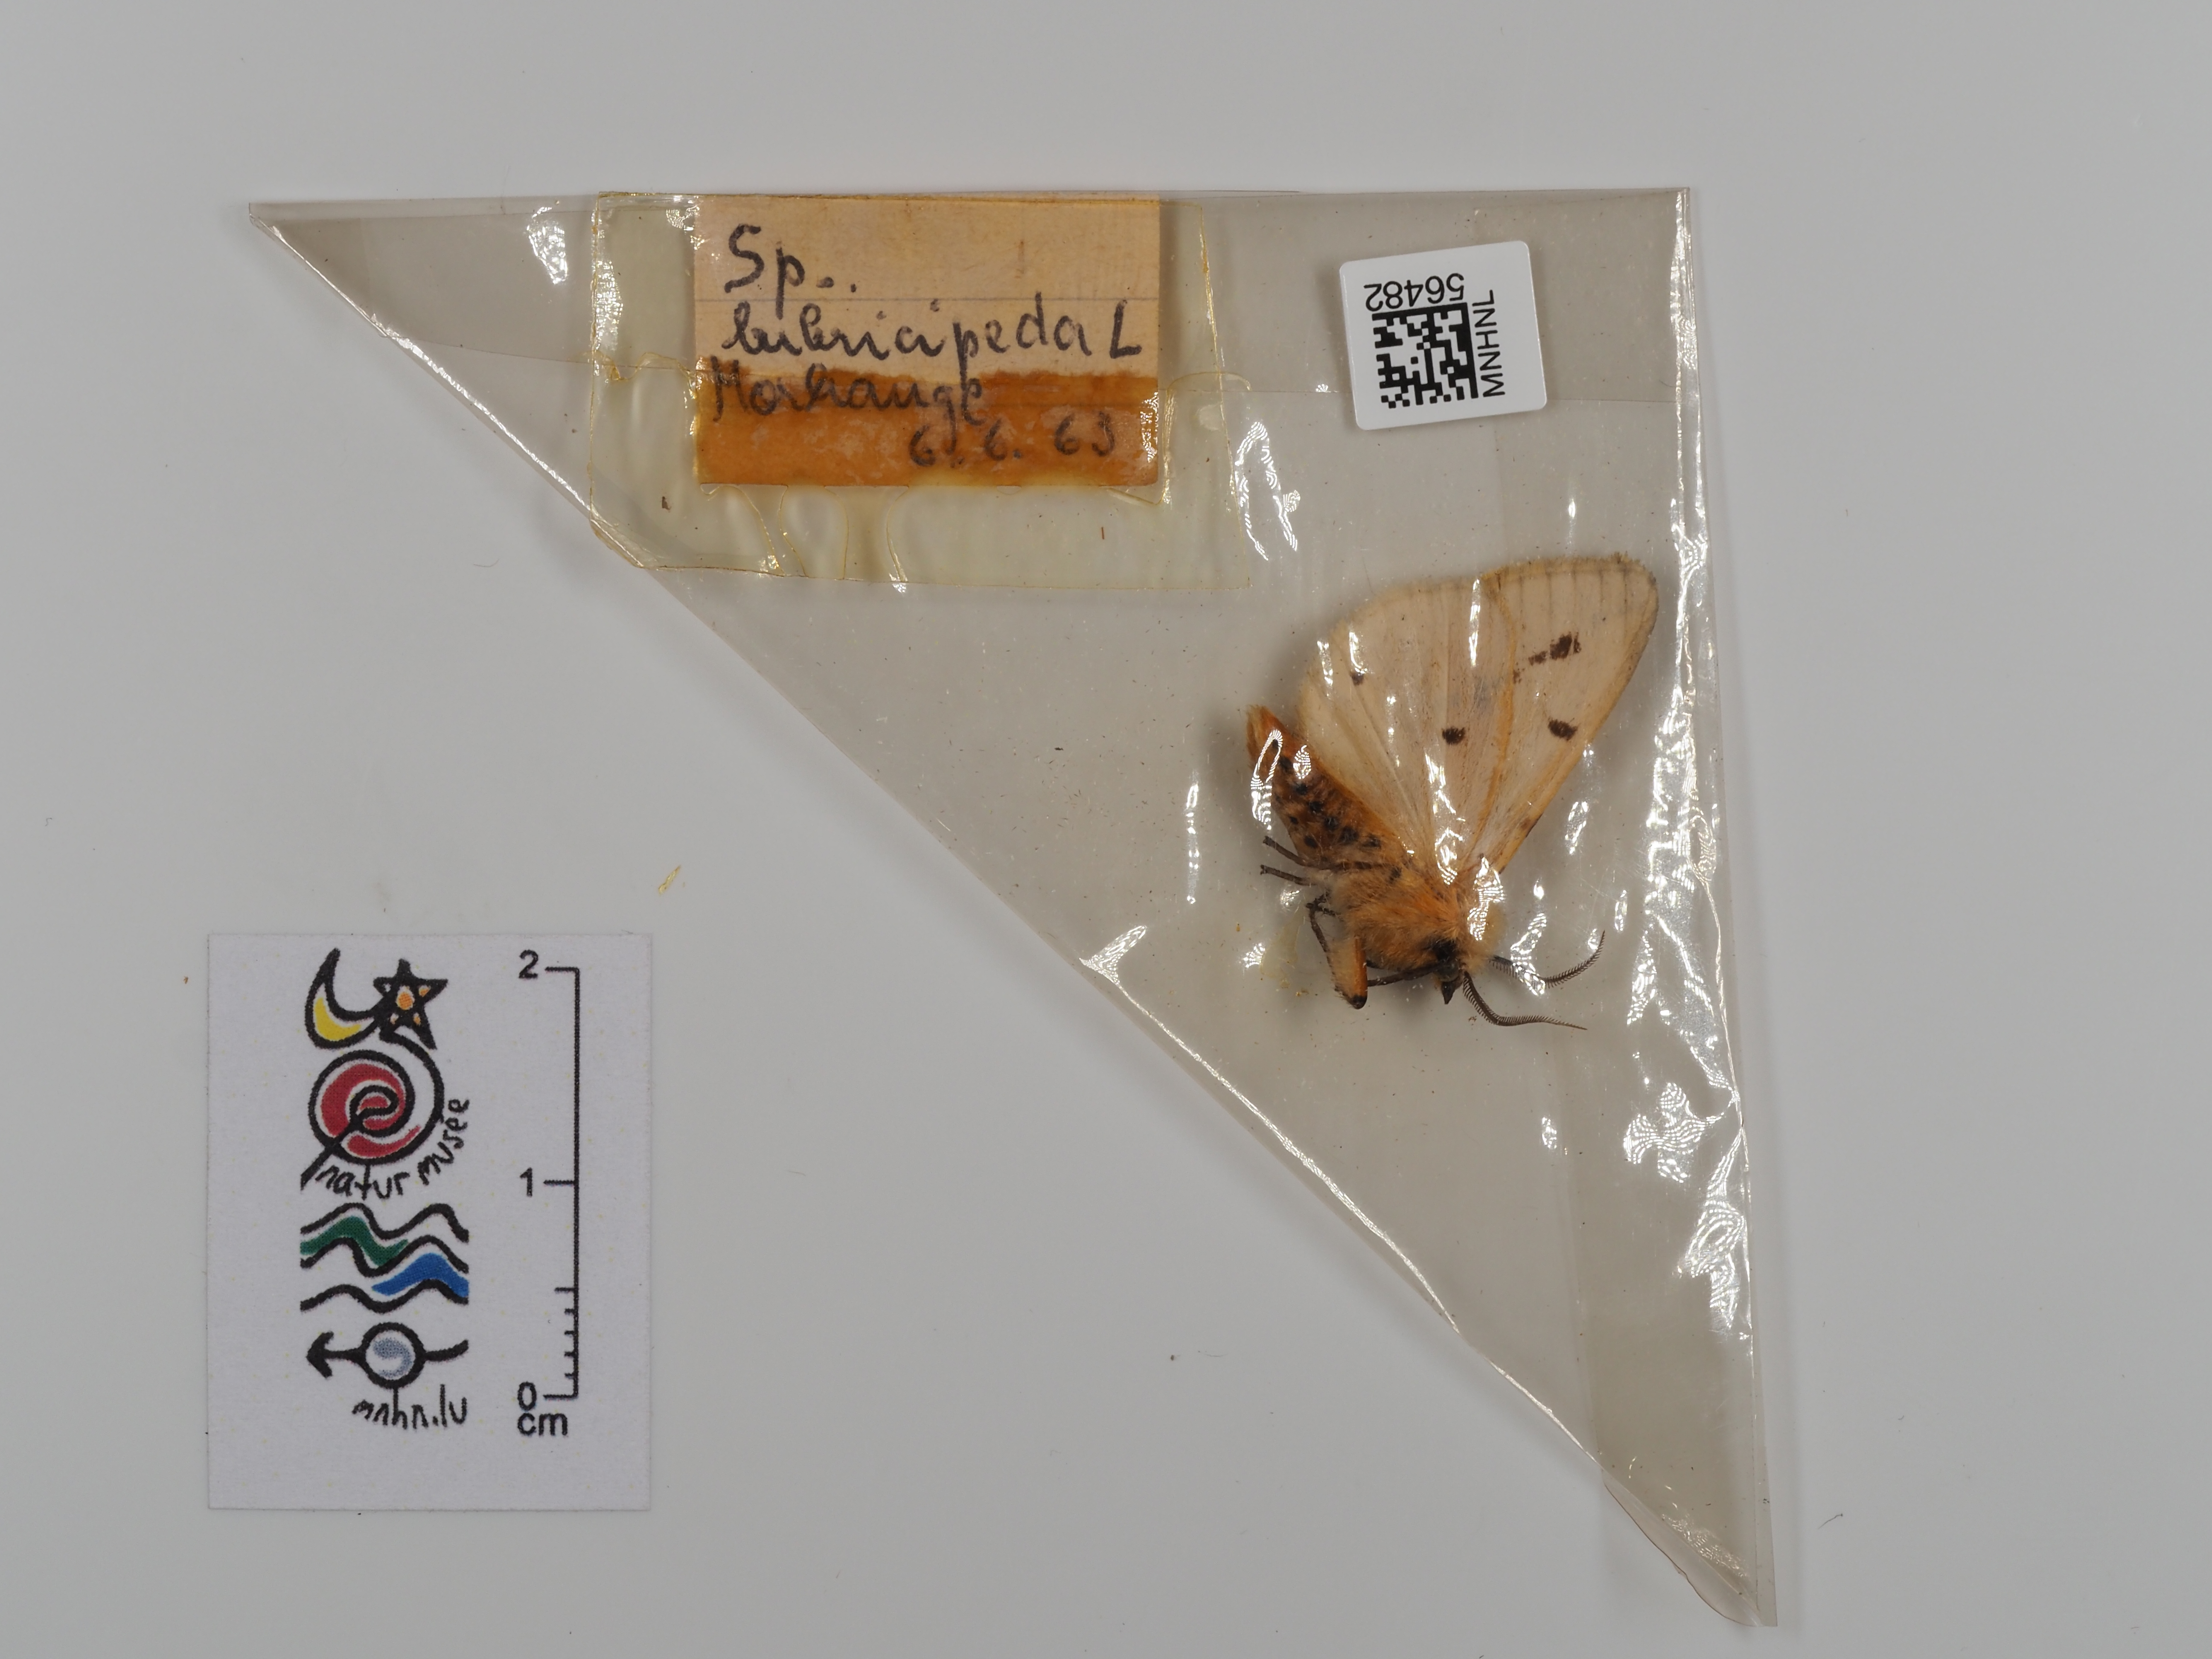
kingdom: Animalia
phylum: Arthropoda
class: Insecta
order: Lepidoptera
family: Erebidae
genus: Spilosoma
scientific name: Spilosoma lubricipeda
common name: White ermine
